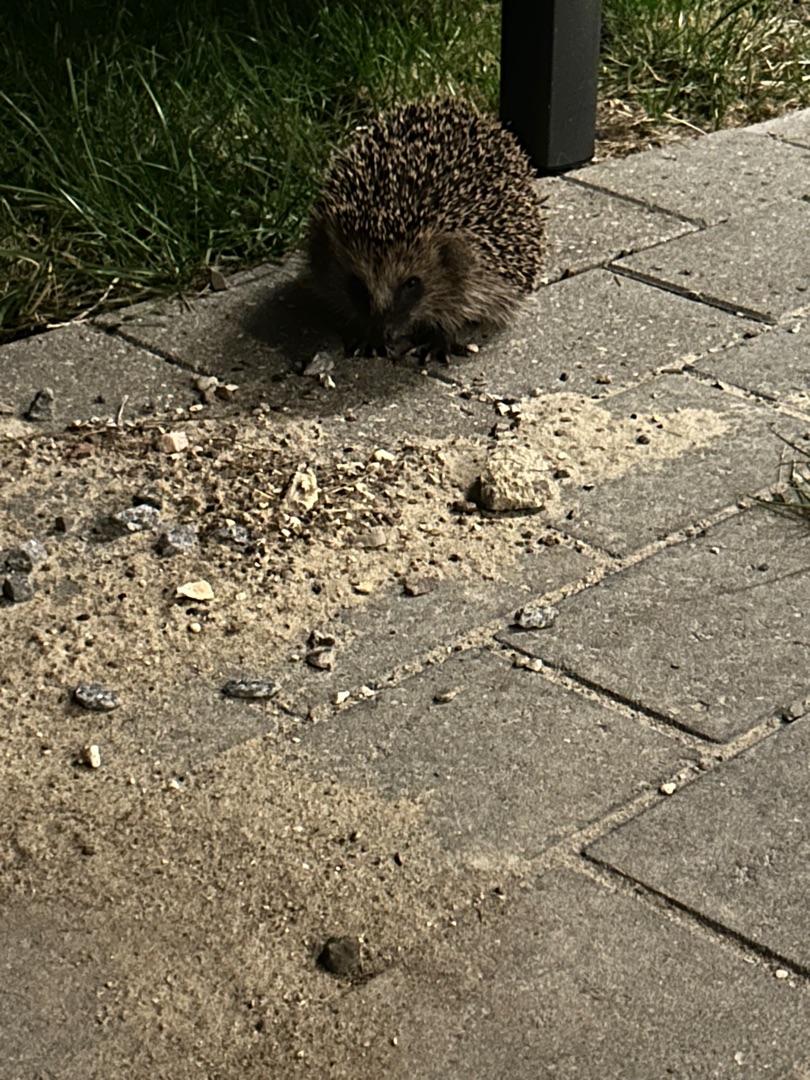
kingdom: Animalia
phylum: Chordata
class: Mammalia
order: Erinaceomorpha
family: Erinaceidae
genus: Erinaceus
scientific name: Erinaceus europaeus
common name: Pindsvin
